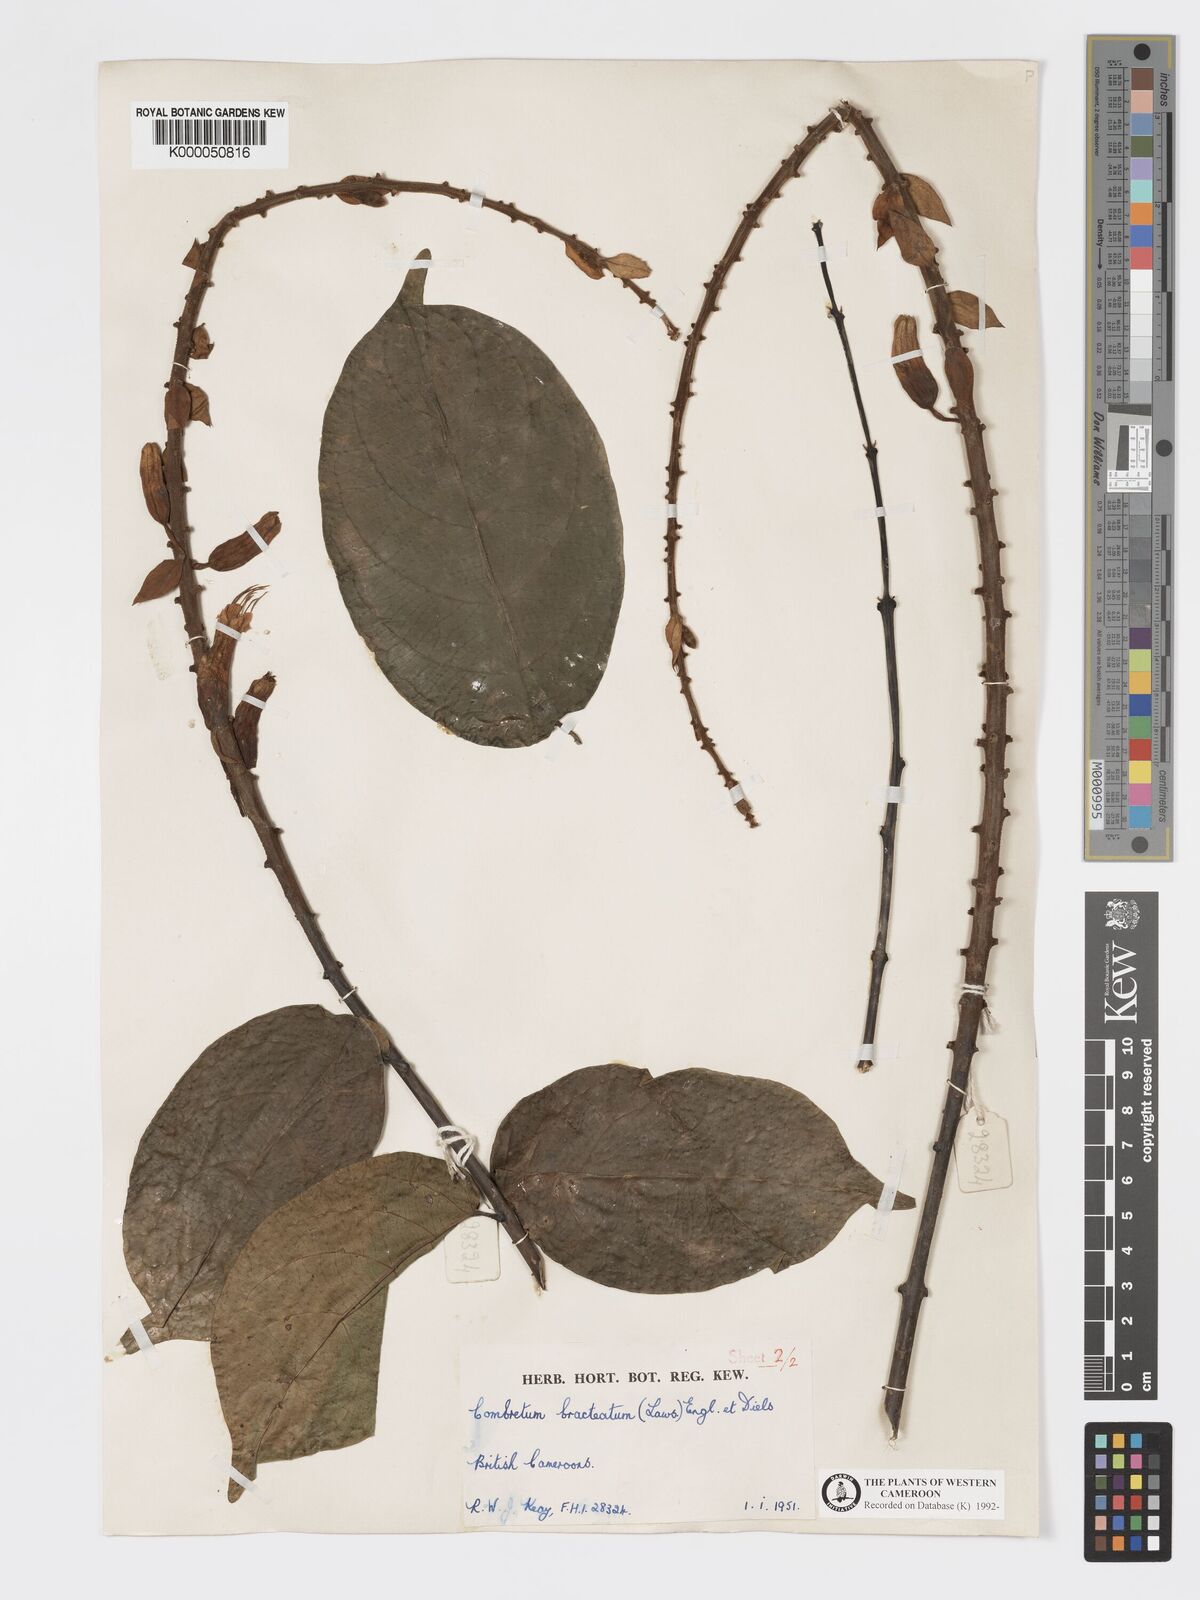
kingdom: Plantae
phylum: Tracheophyta
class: Magnoliopsida
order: Myrtales
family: Combretaceae
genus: Combretum
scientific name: Combretum bracteatum
